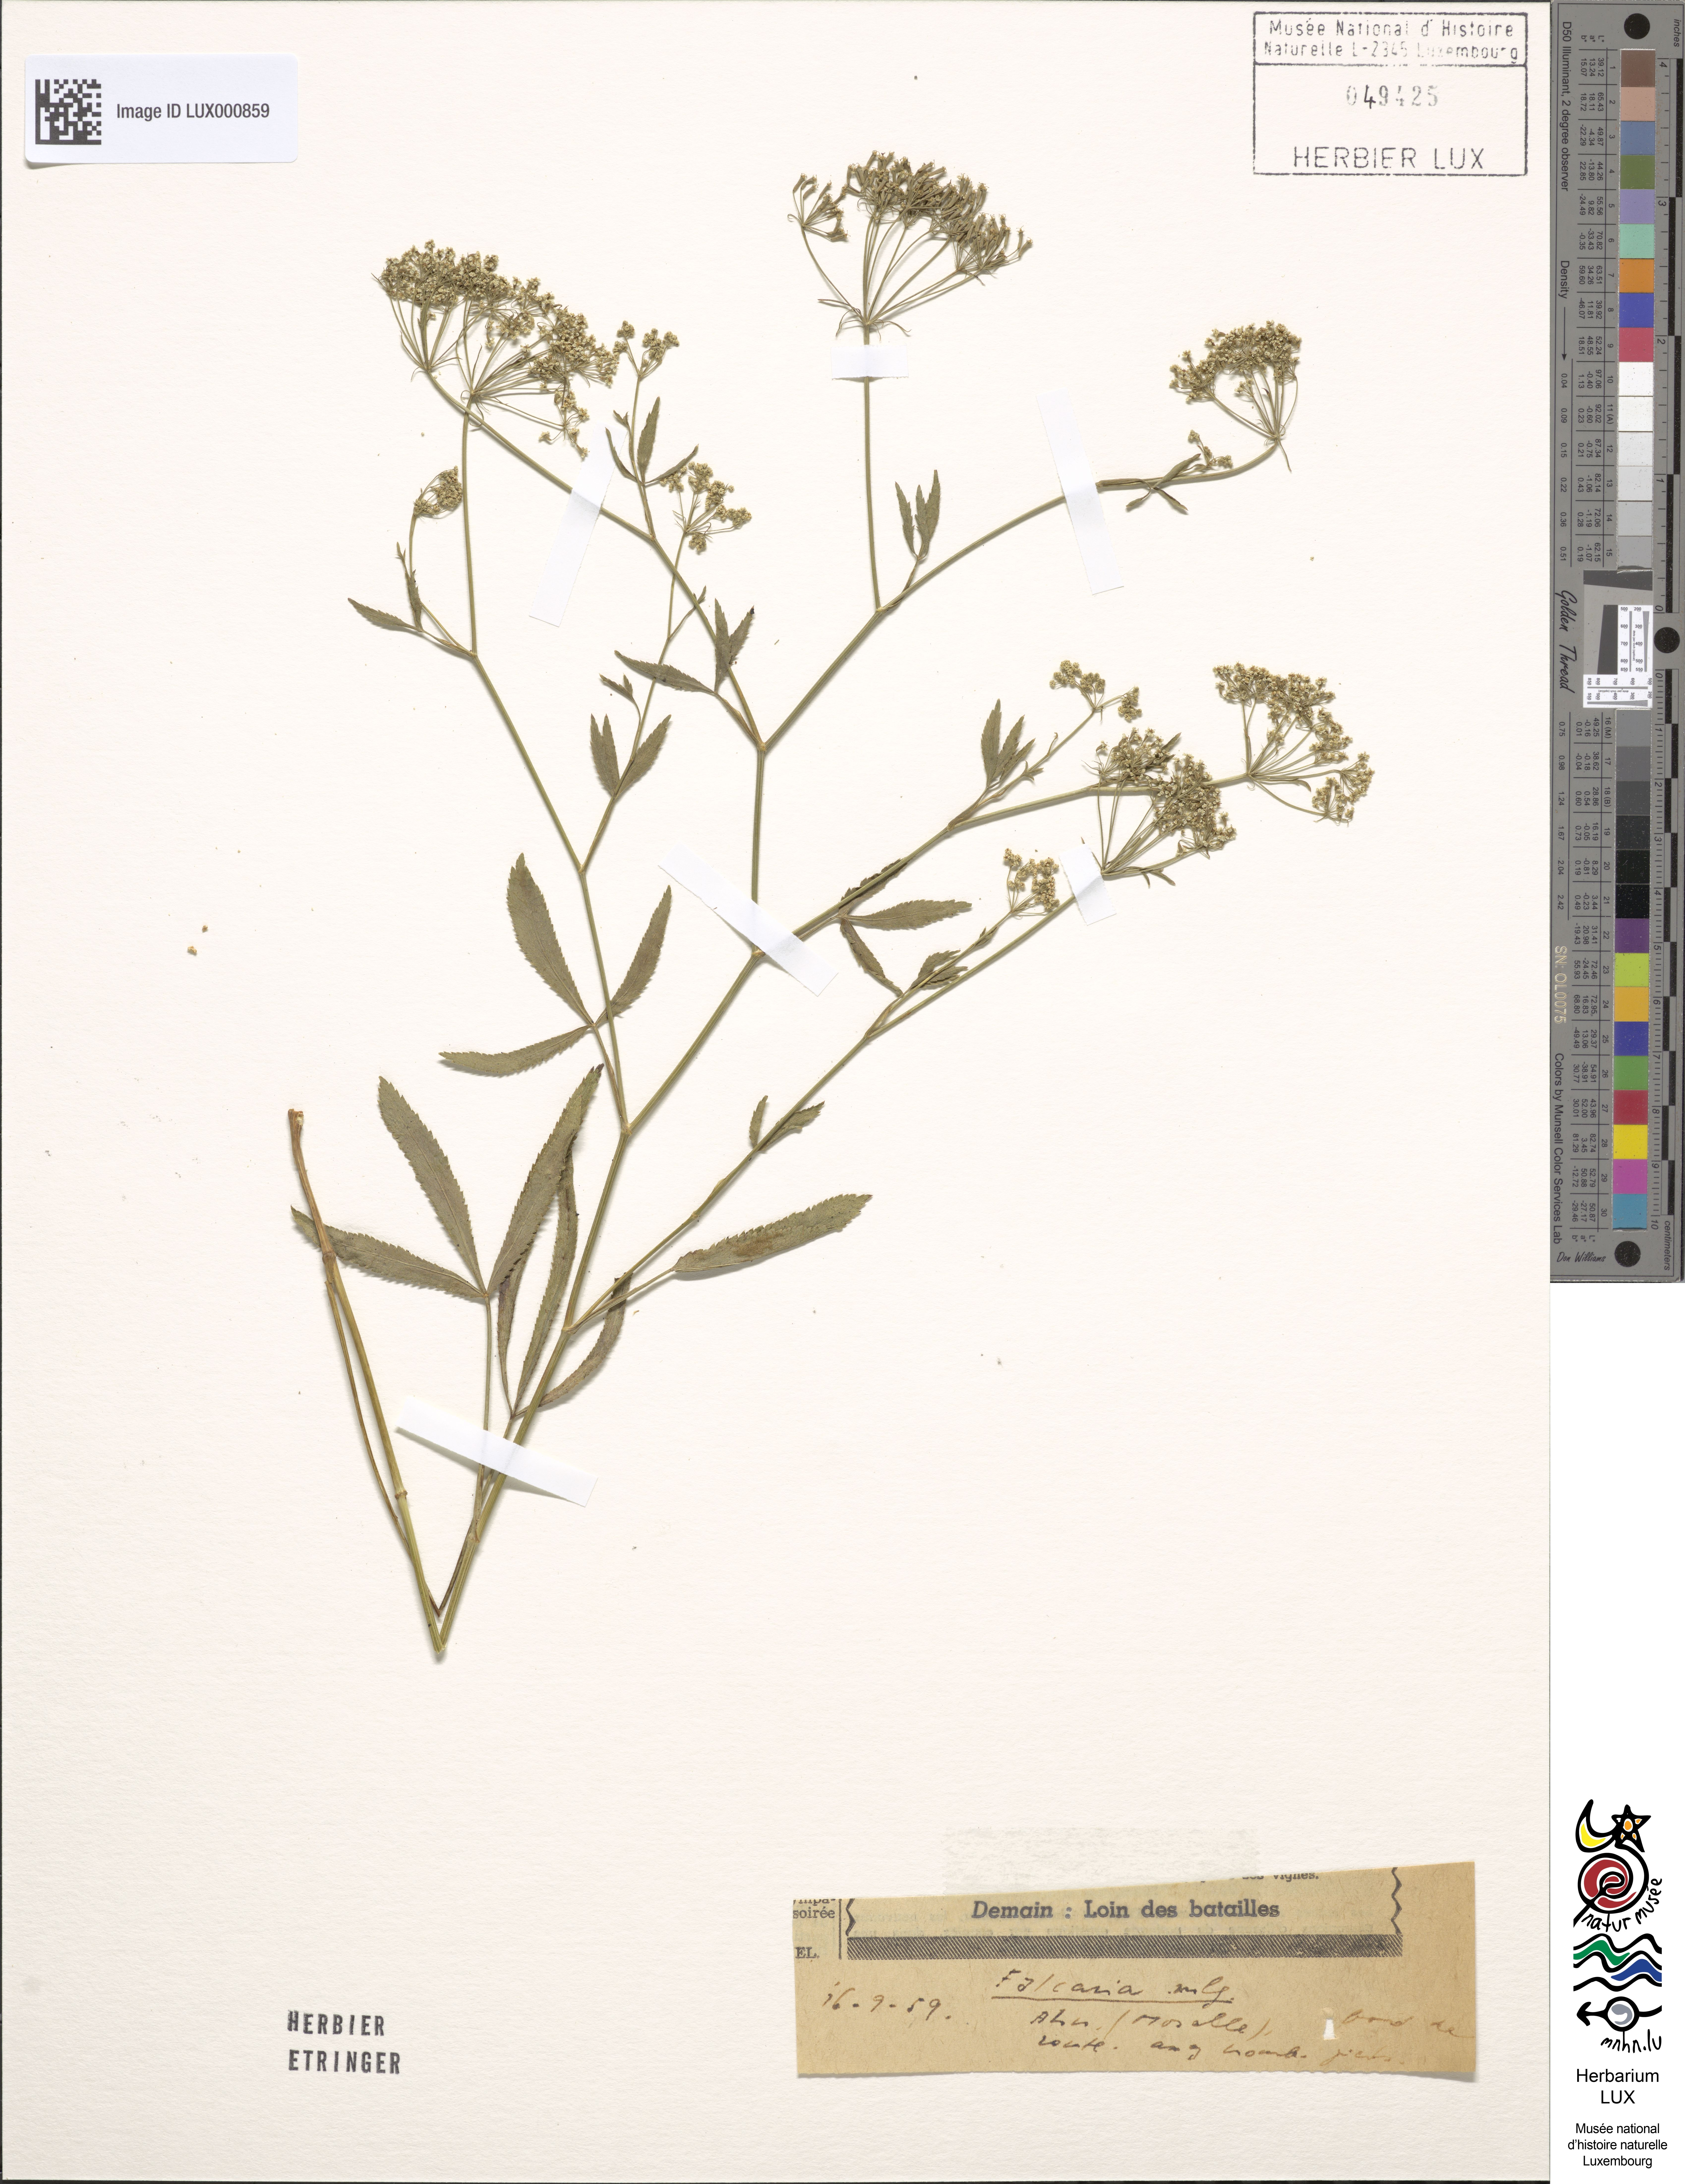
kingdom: Plantae
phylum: Tracheophyta
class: Magnoliopsida
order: Apiales
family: Apiaceae
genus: Falcaria
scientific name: Falcaria vulgaris
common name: Longleaf
